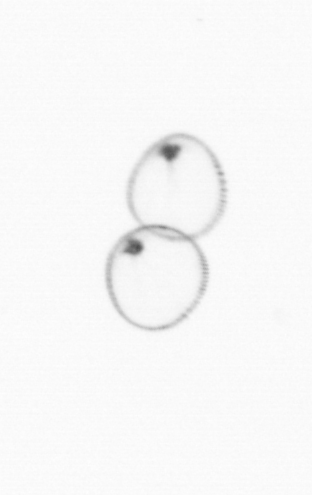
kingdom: Chromista
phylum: Myzozoa
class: Dinophyceae
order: Noctilucales
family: Noctilucaceae
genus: Noctiluca
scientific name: Noctiluca scintillans
